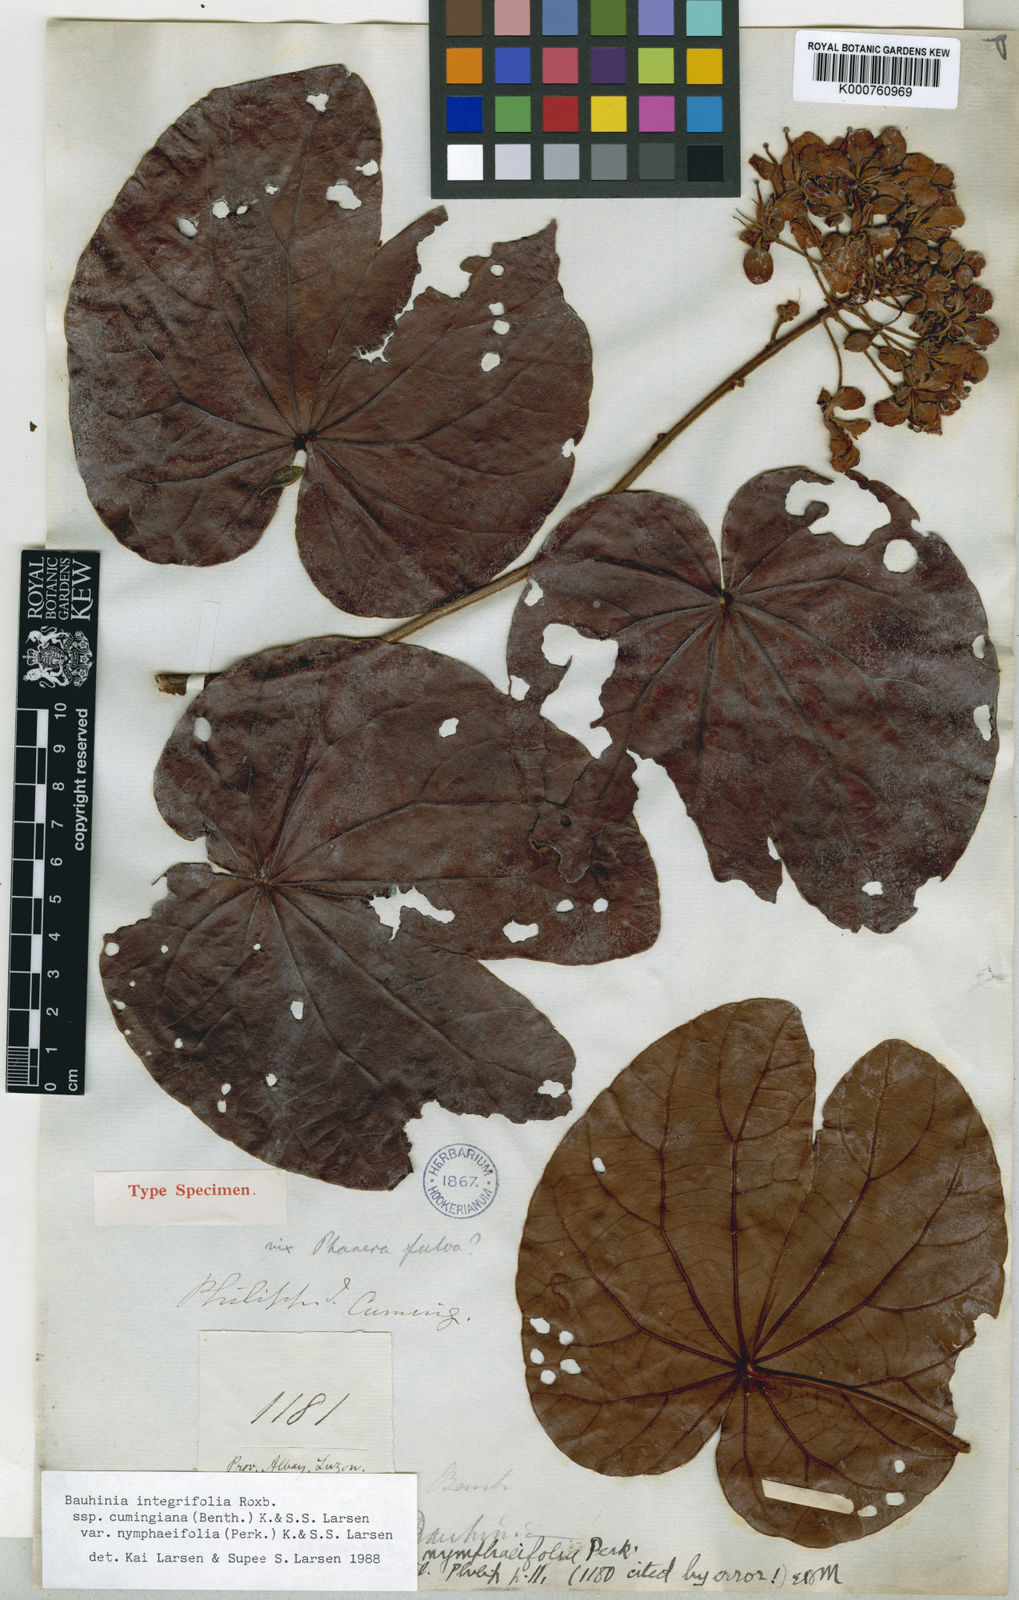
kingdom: Plantae
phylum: Tracheophyta
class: Magnoliopsida
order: Fabales
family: Fabaceae
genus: Phanera
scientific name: Phanera integrifolia
